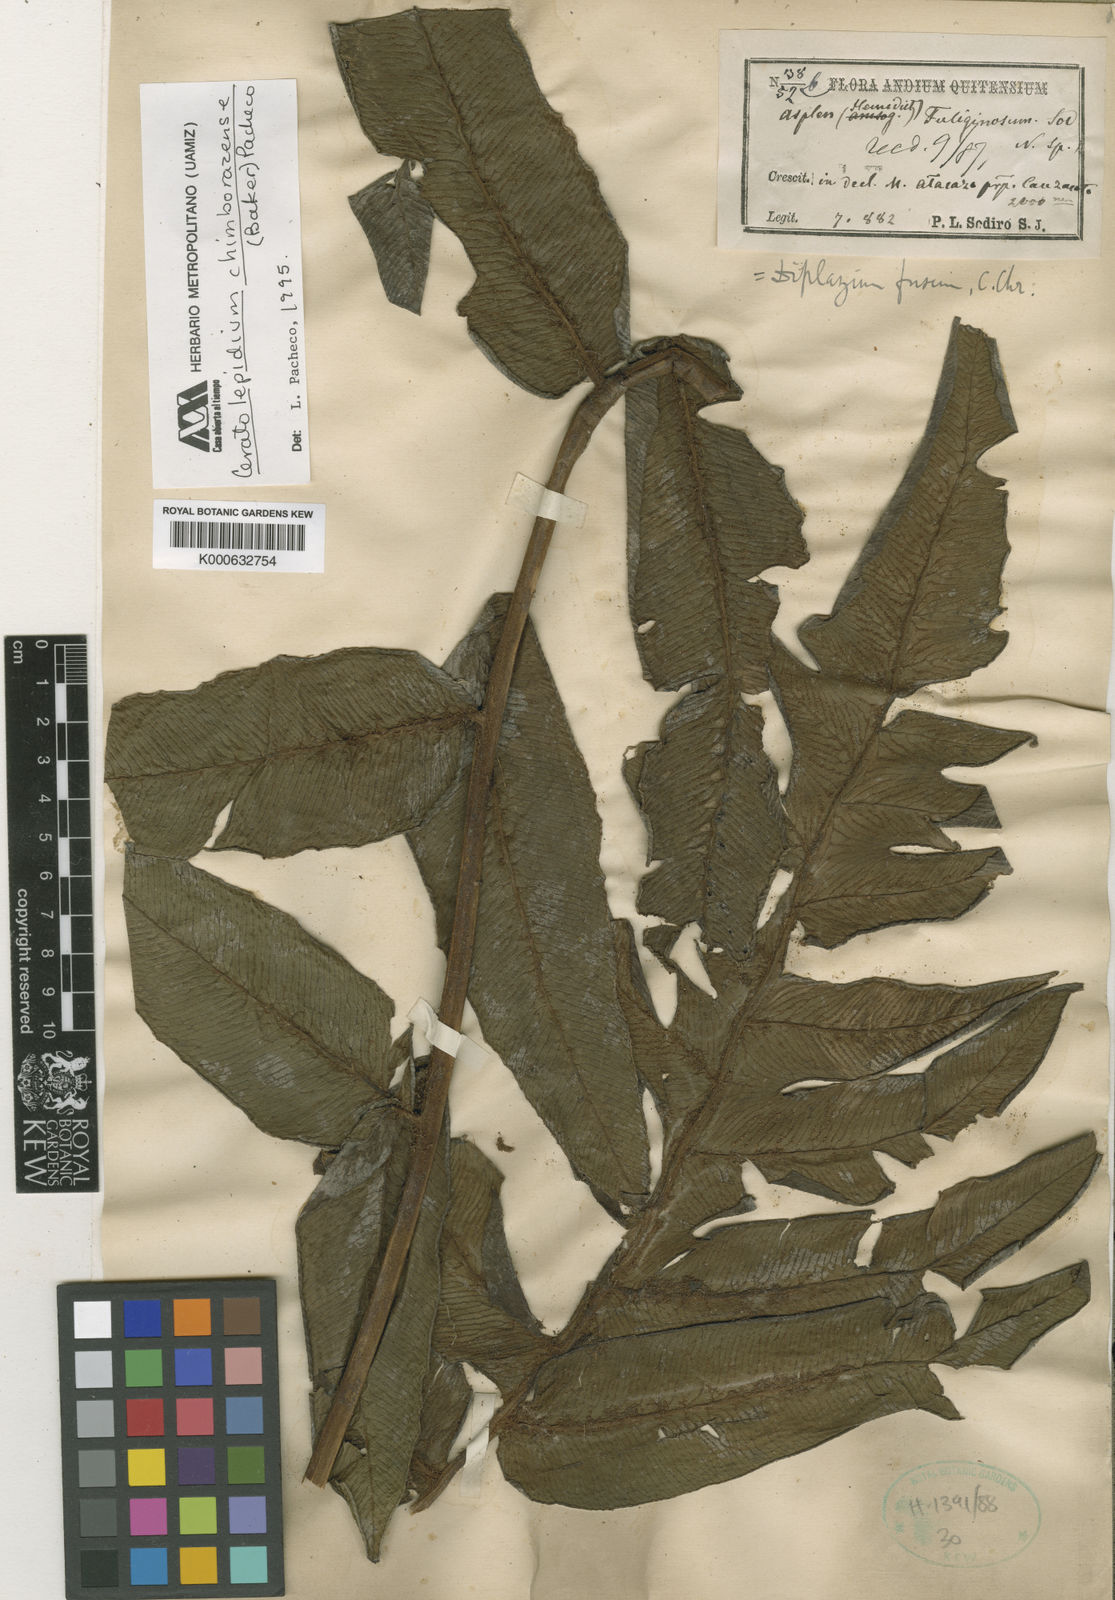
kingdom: Plantae
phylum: Tracheophyta
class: Polypodiopsida
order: Polypodiales
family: Athyriaceae
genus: Diplazium
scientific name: Diplazium chimborazense
